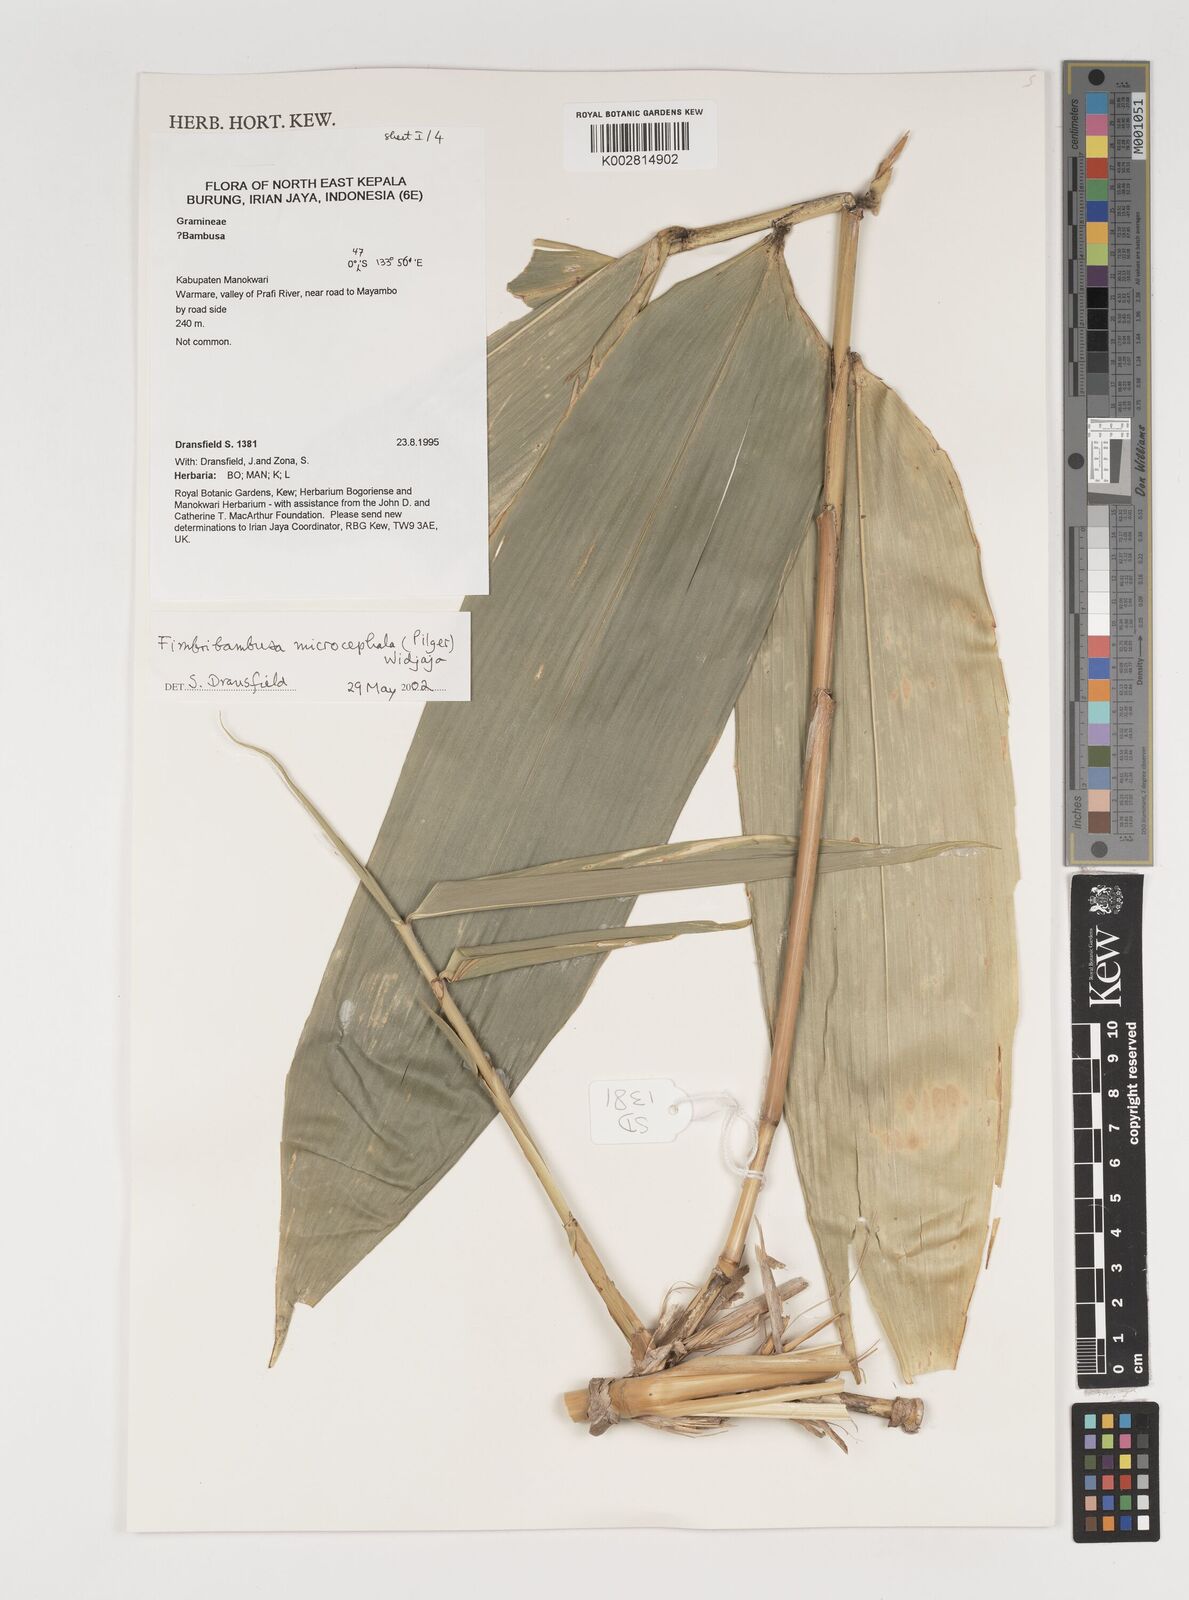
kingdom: Plantae
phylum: Tracheophyta
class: Liliopsida
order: Poales
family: Poaceae
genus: Fimbribambusa
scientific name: Fimbribambusa microcephala
